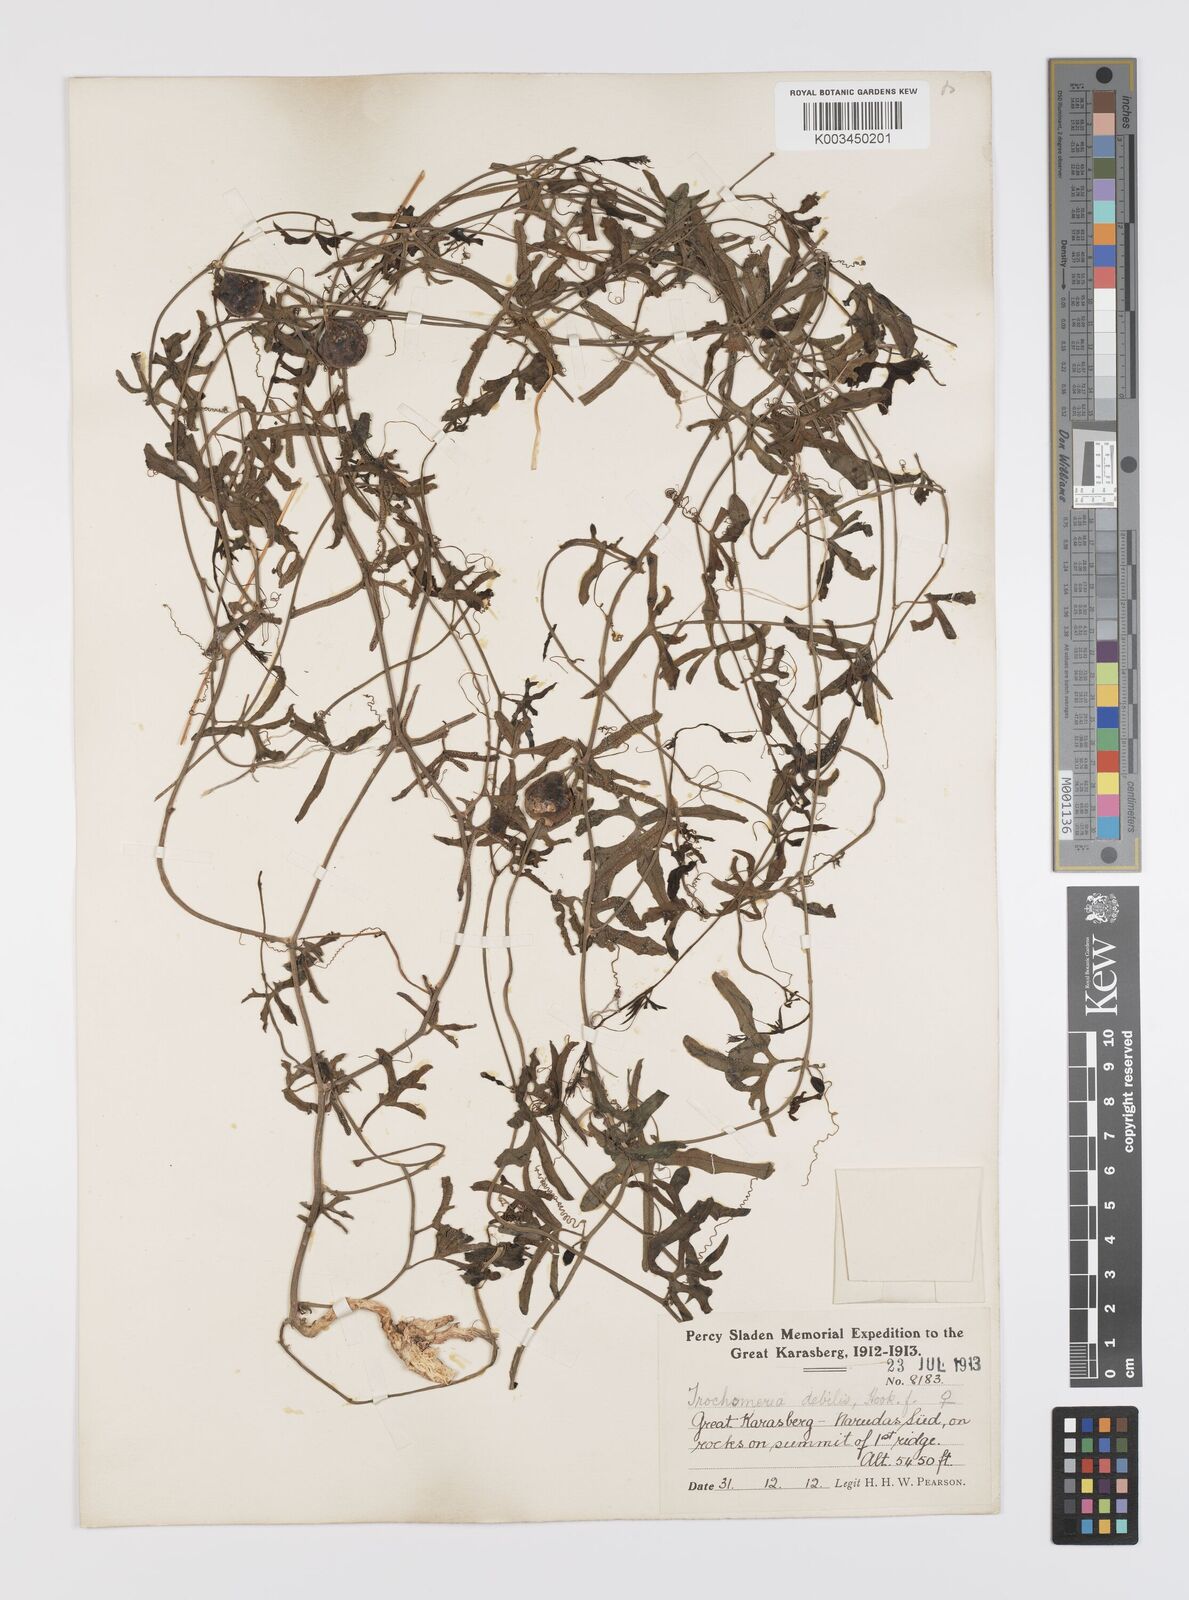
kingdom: Plantae
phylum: Tracheophyta
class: Magnoliopsida
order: Cucurbitales
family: Cucurbitaceae
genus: Trochomeria
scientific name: Trochomeria debilis
